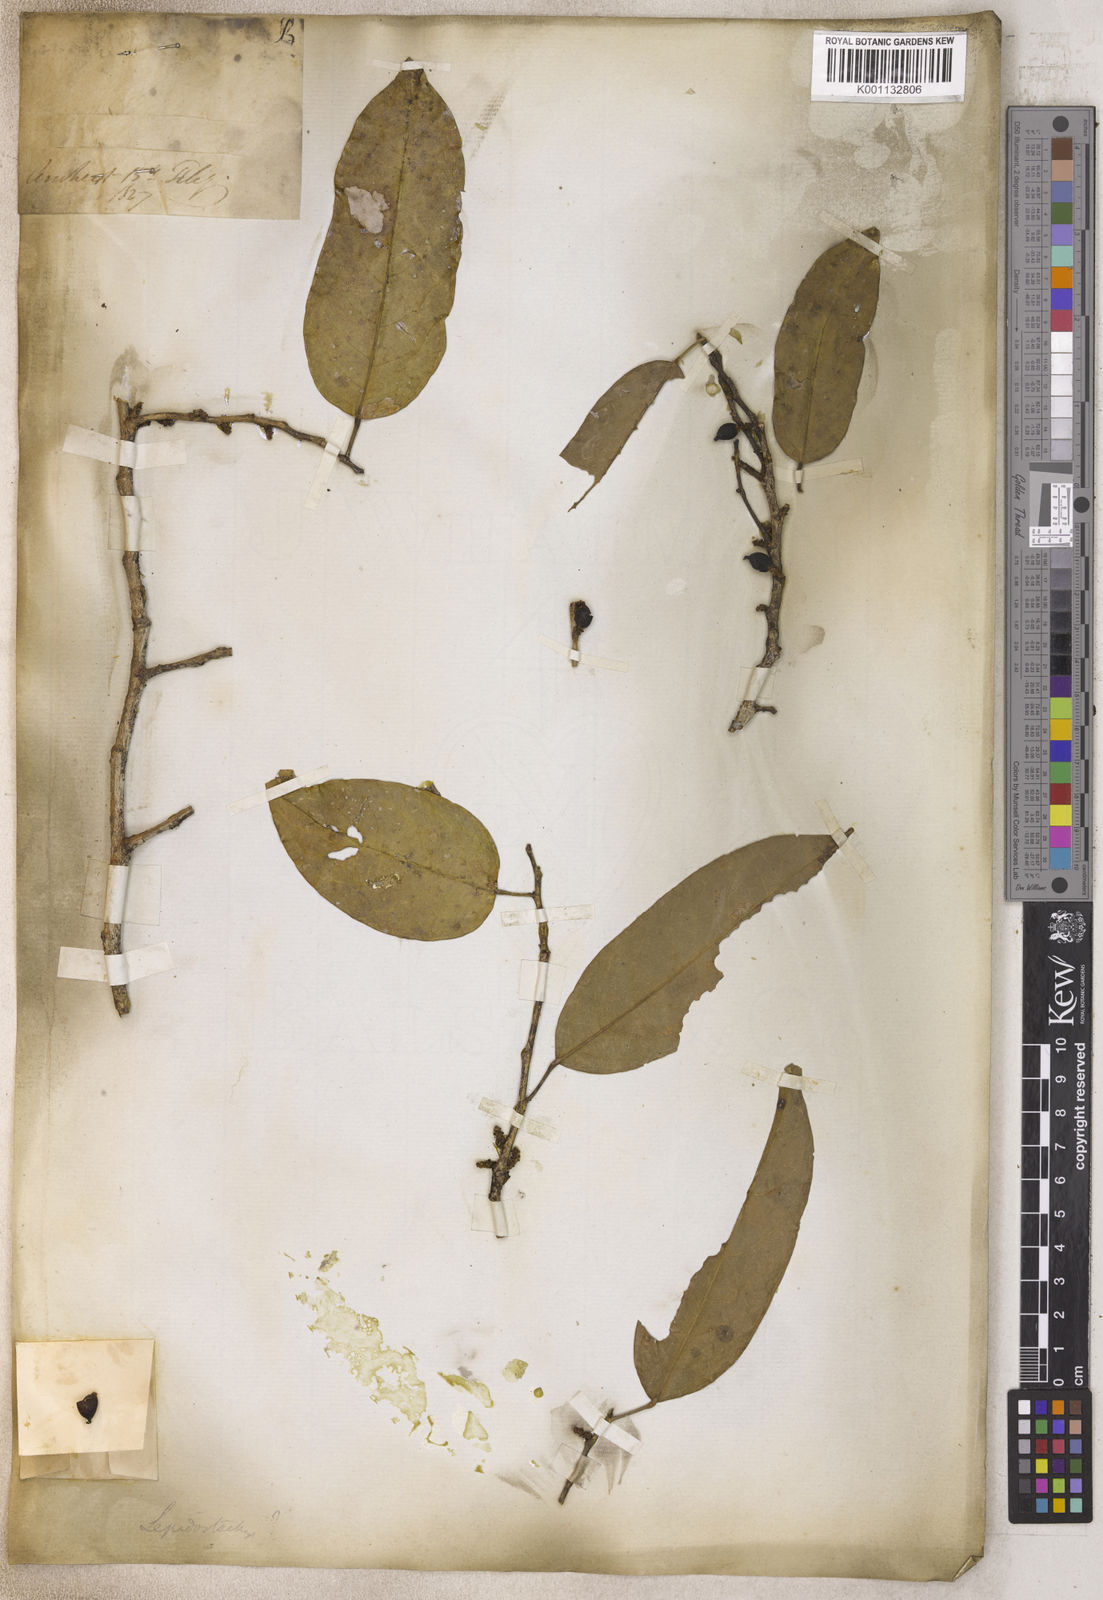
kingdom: Plantae
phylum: Tracheophyta
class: Magnoliopsida
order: Malpighiales
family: Phyllanthaceae
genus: Aporosa
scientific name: Aporosa
